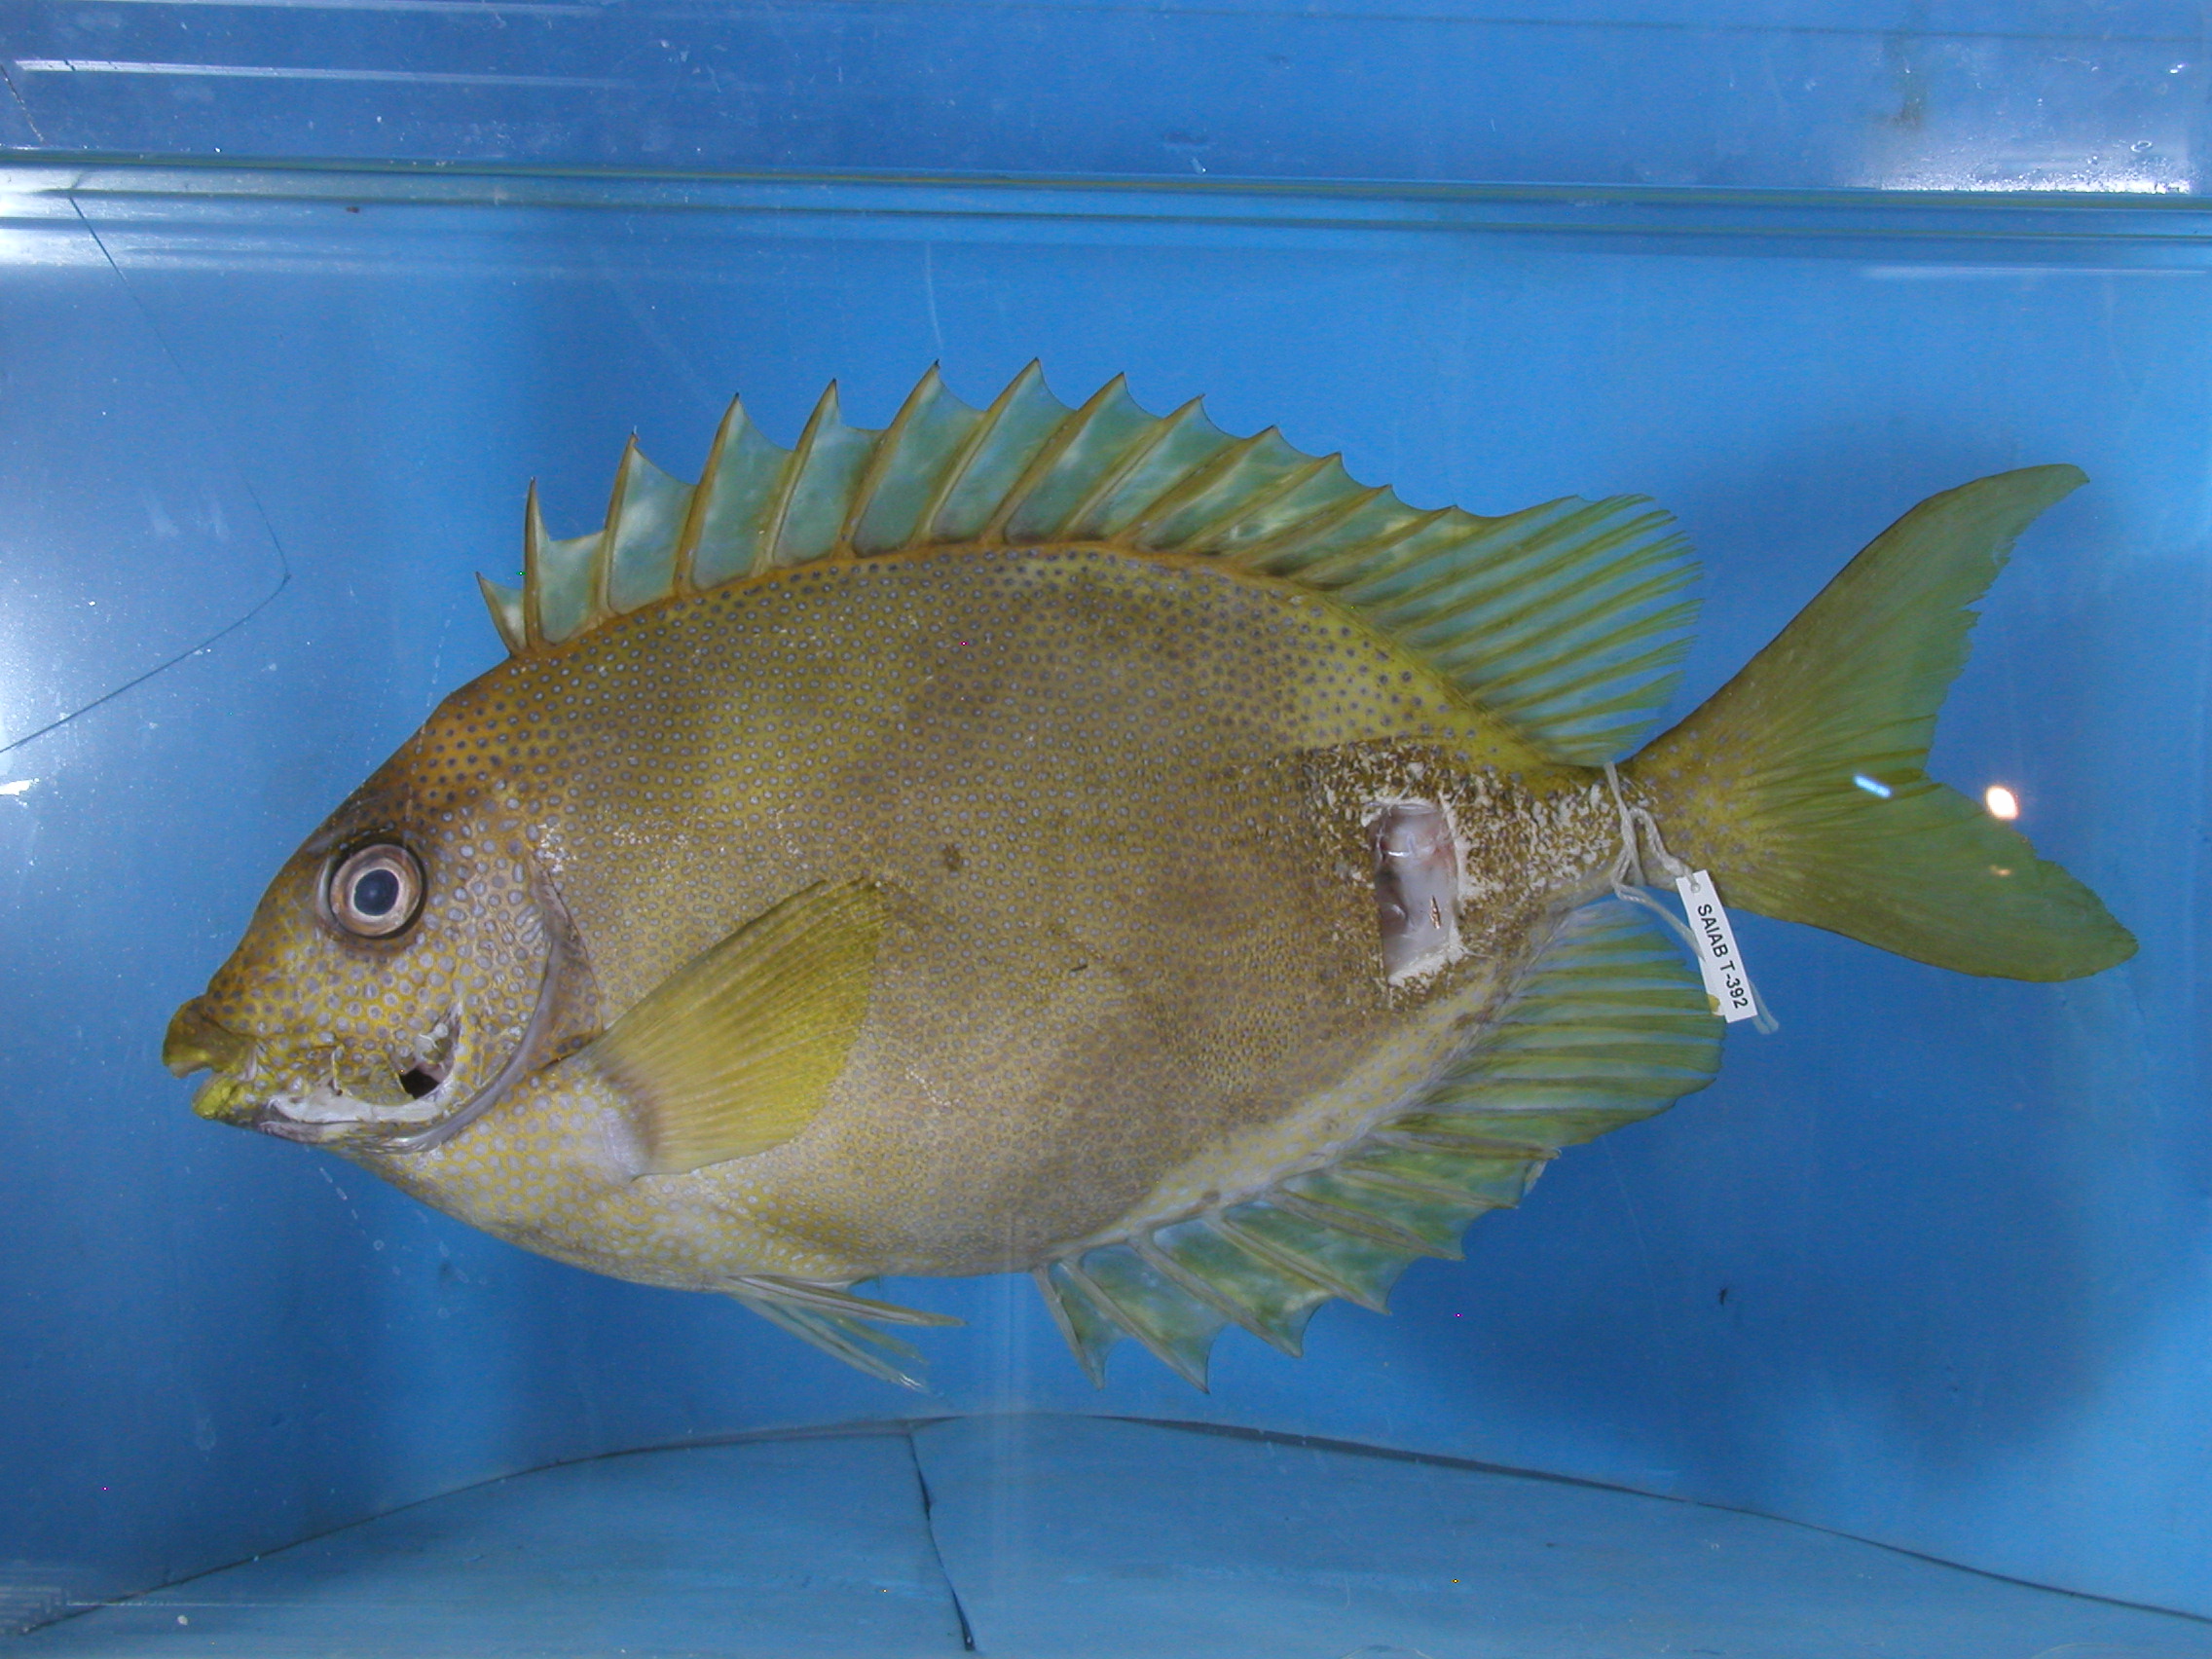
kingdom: Animalia
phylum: Chordata
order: Perciformes
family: Siganidae
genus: Siganus
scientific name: Siganus corallinus
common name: Coral rabbitfish
